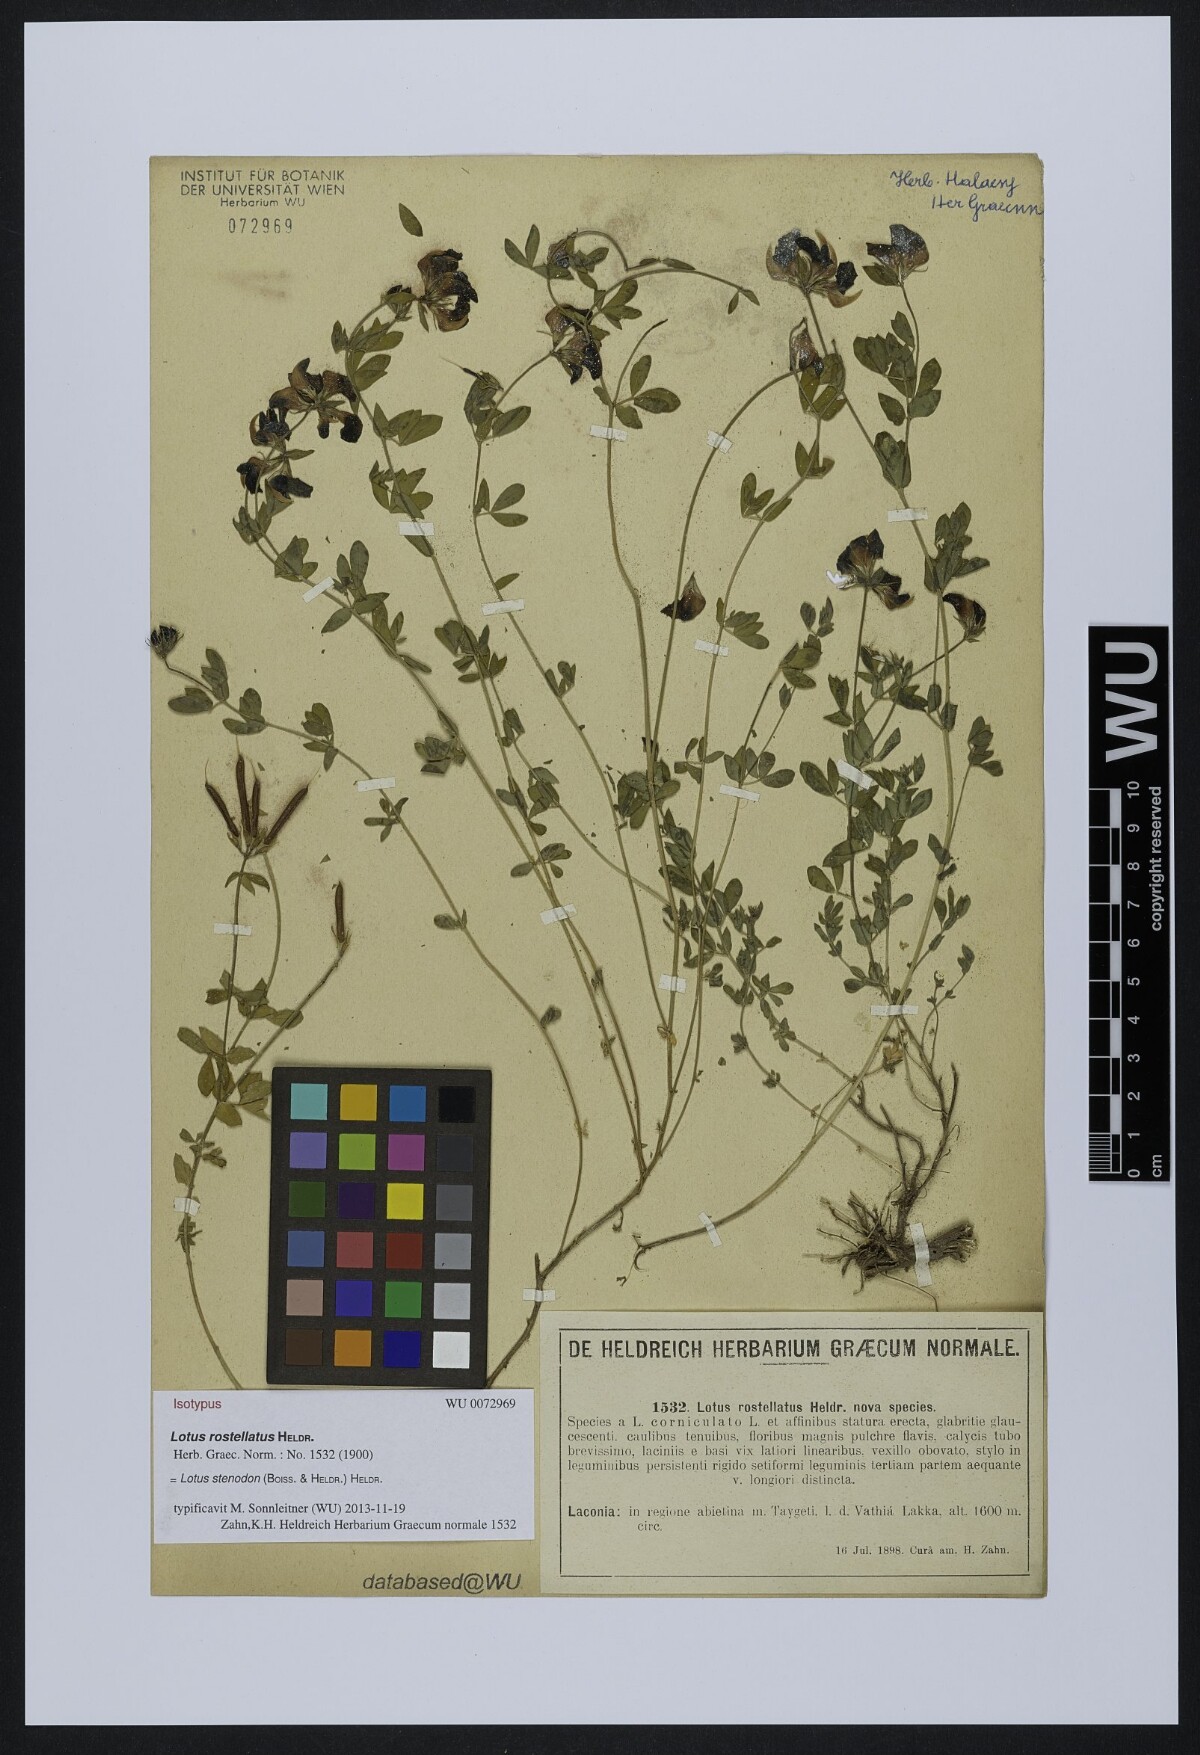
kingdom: Plantae
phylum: Tracheophyta
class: Magnoliopsida
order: Fabales
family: Fabaceae
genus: Lotus
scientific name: Lotus corniculatus
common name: Common bird's-foot-trefoil
